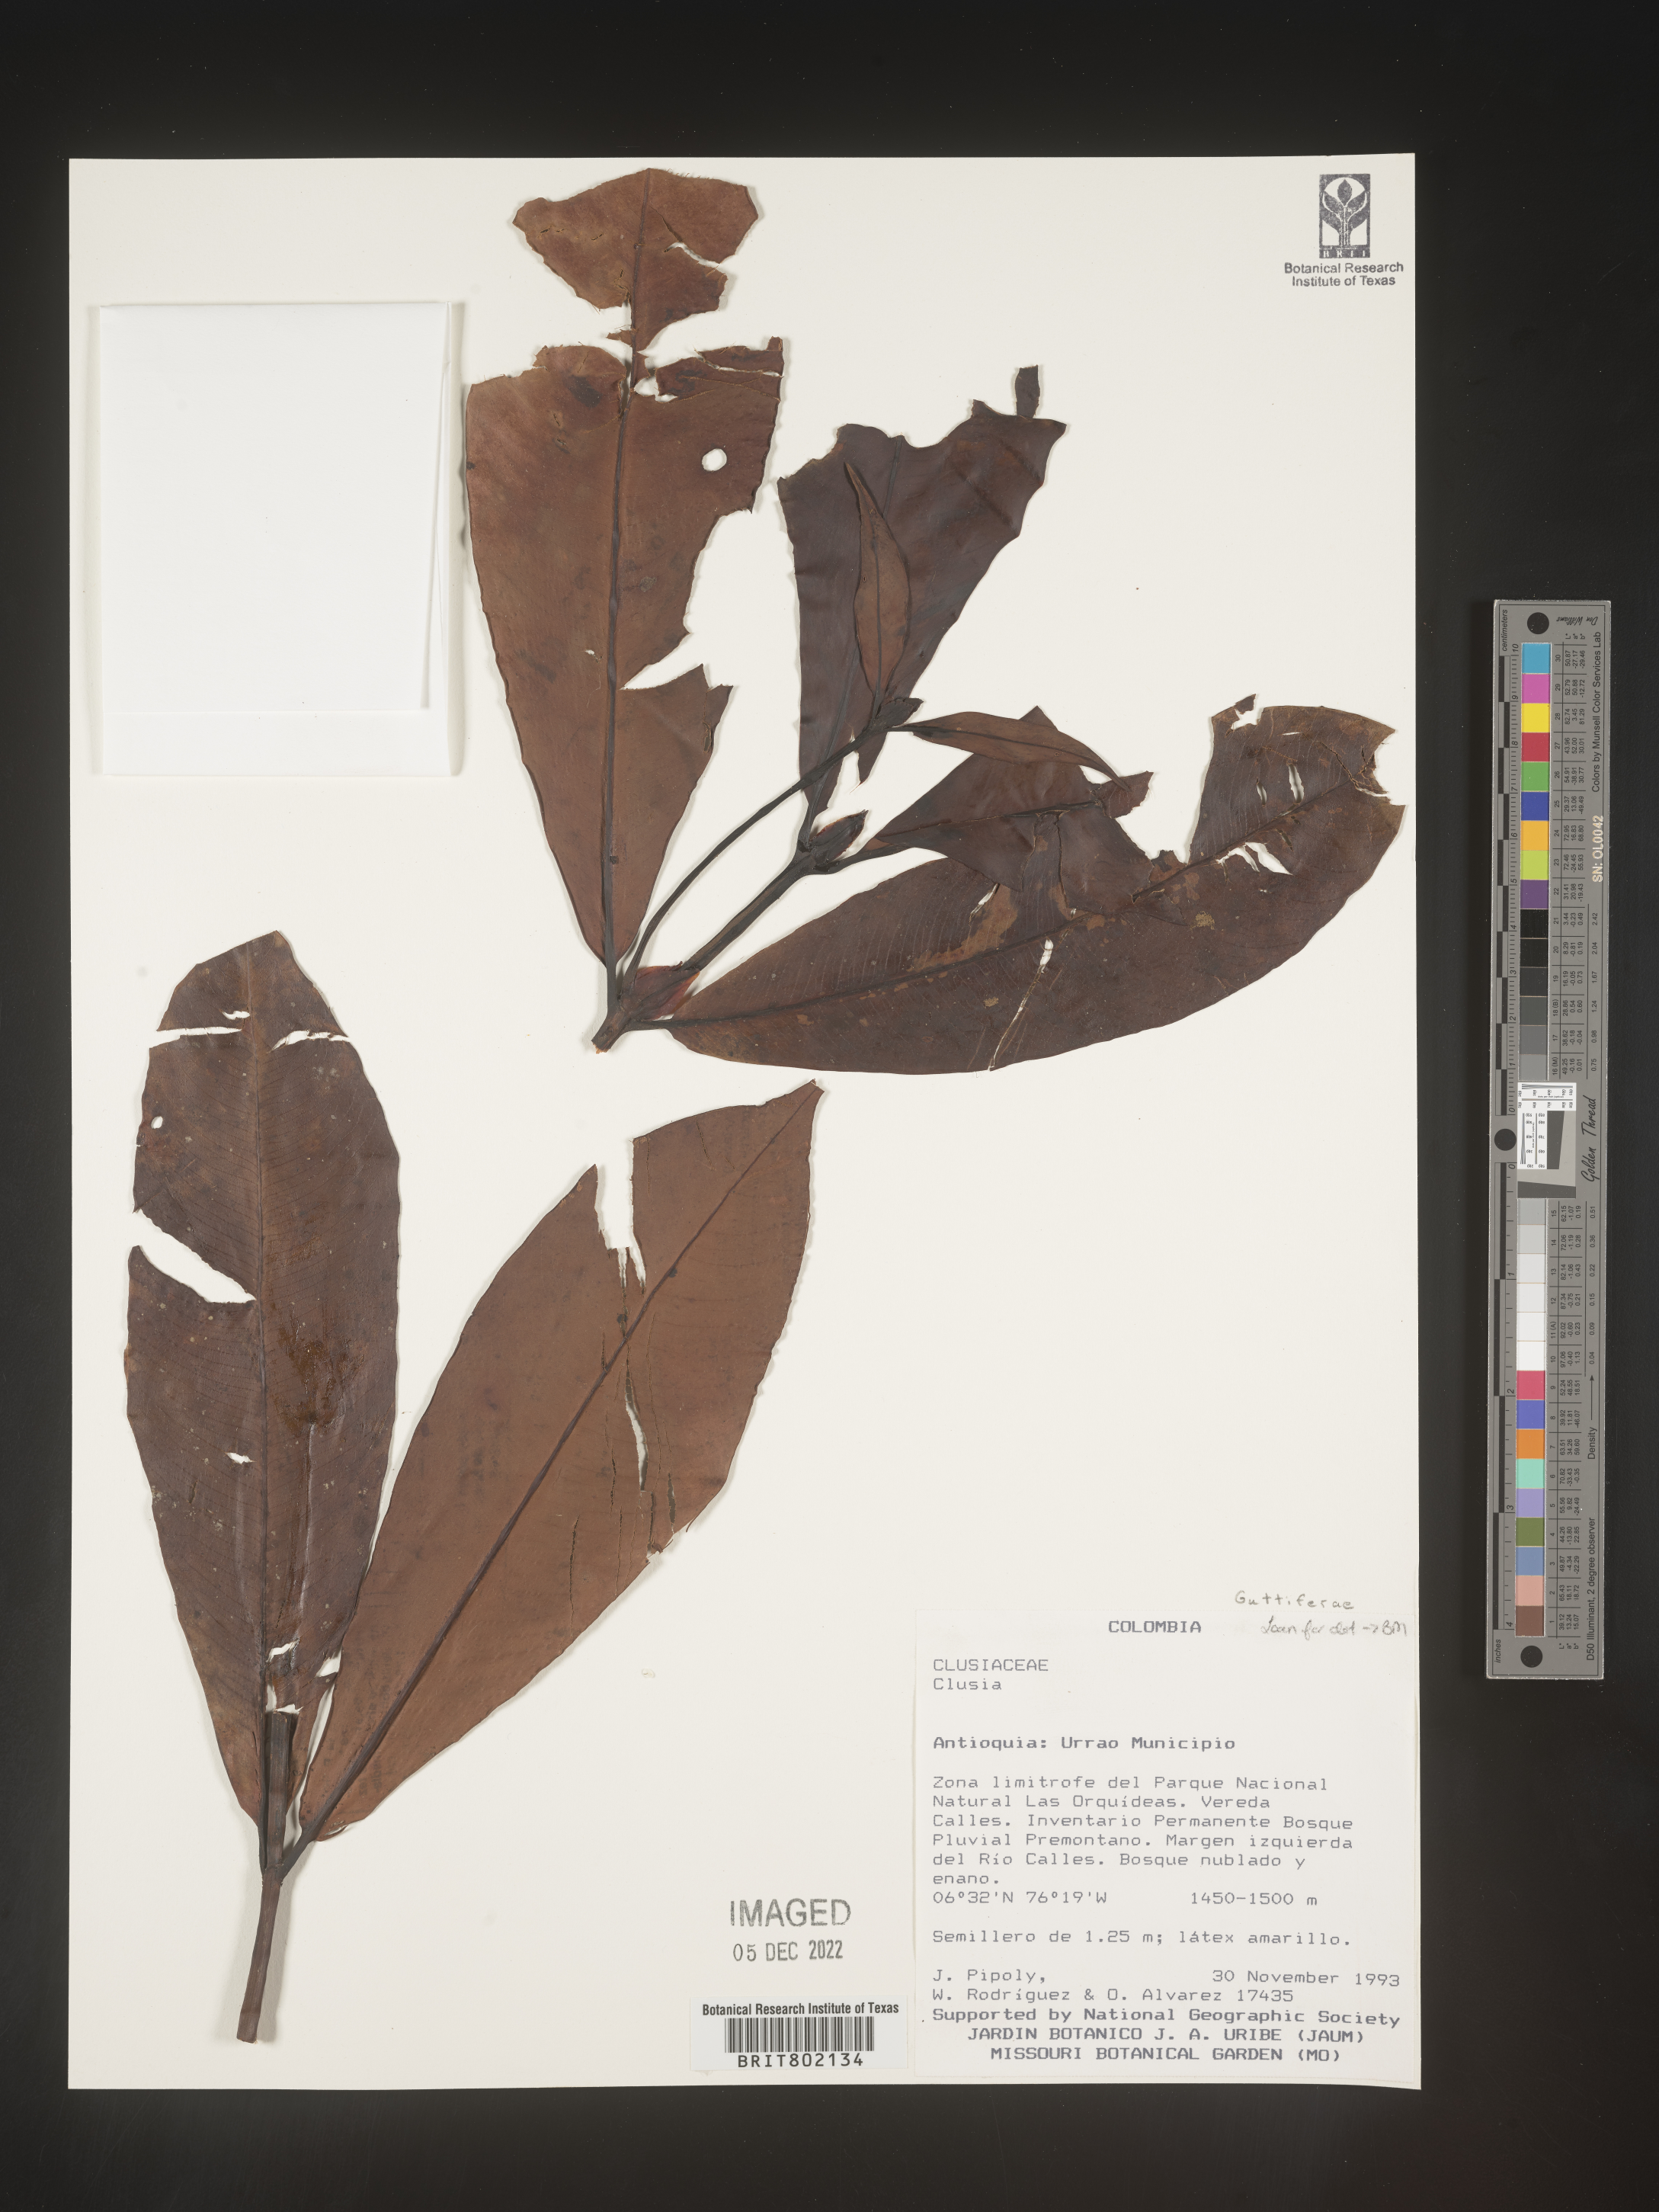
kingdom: Plantae
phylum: Tracheophyta
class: Magnoliopsida
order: Malpighiales
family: Clusiaceae
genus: Clusia
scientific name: Clusia
